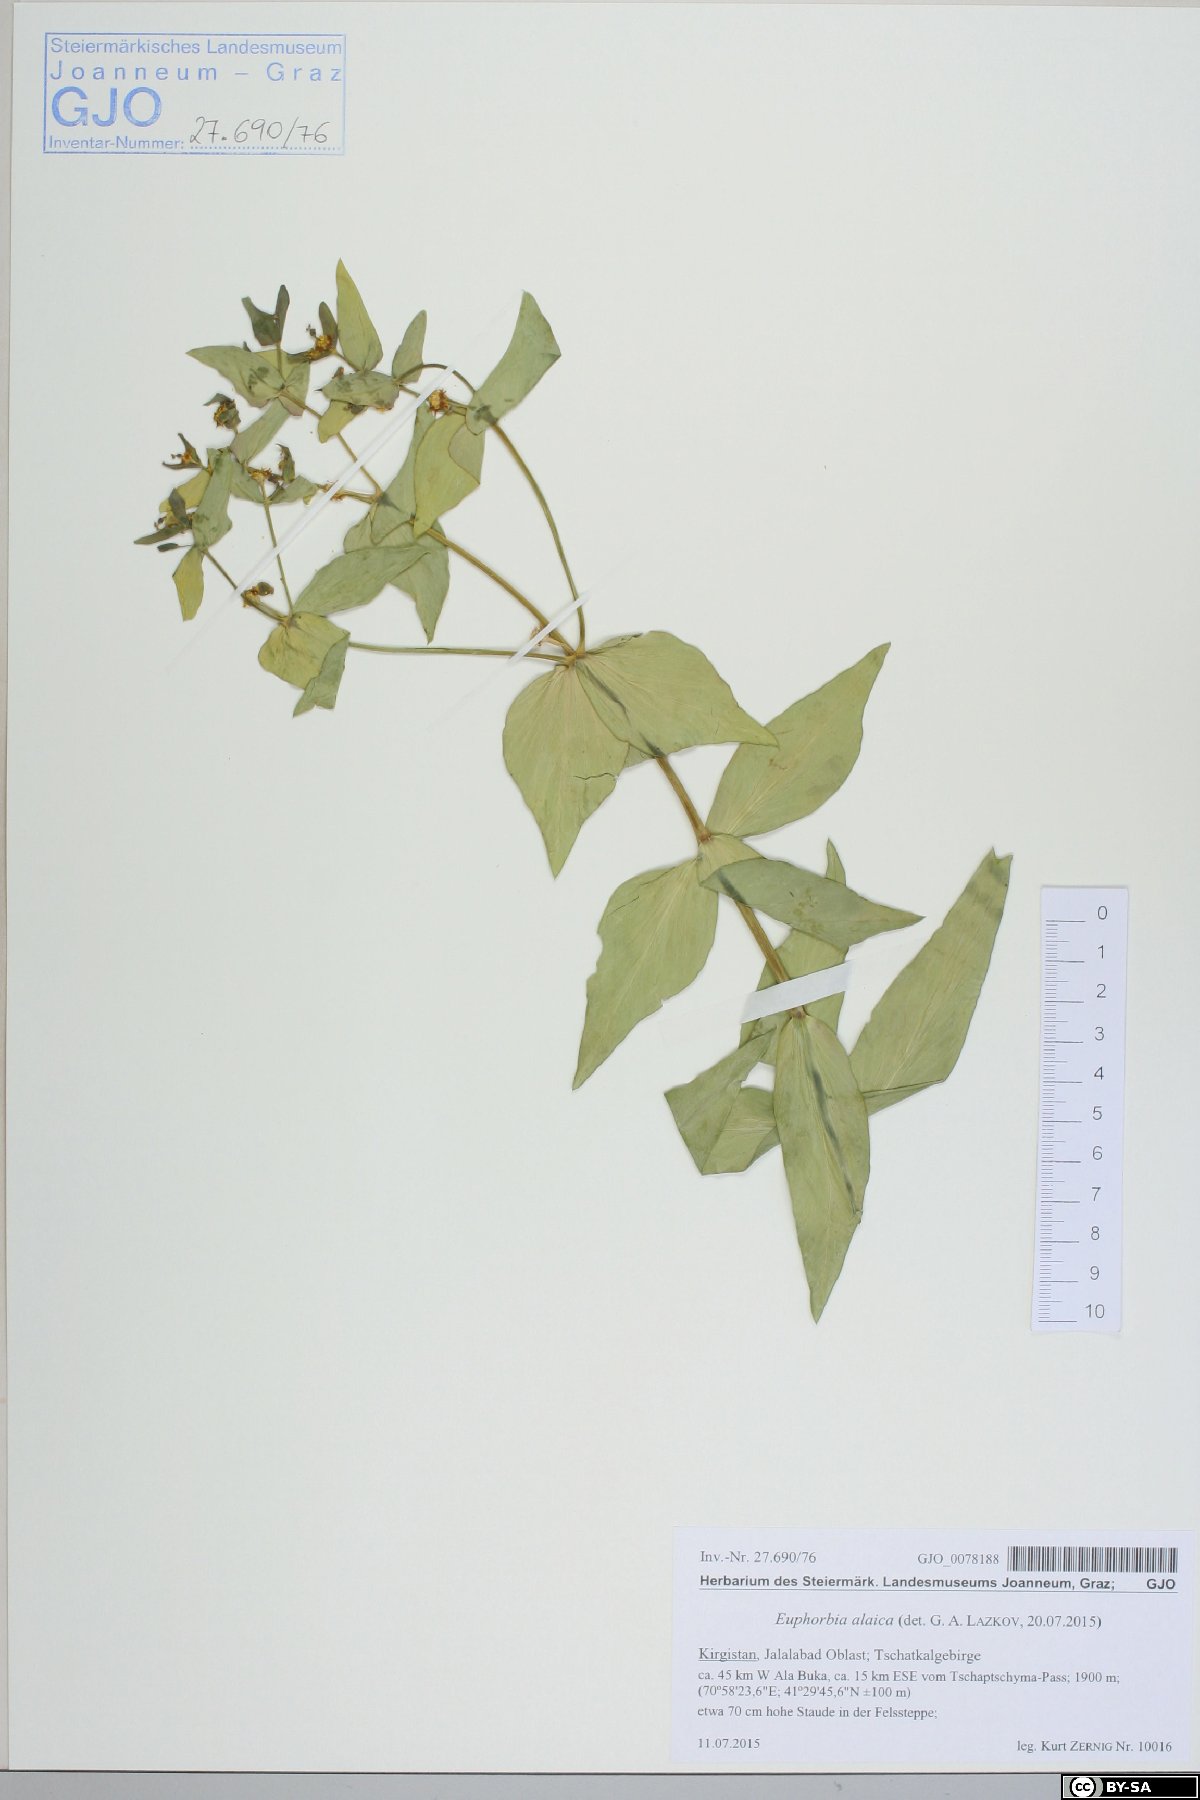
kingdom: Plantae
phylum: Tracheophyta
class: Magnoliopsida
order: Malpighiales
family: Euphorbiaceae
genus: Euphorbia
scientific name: Euphorbia alaica
